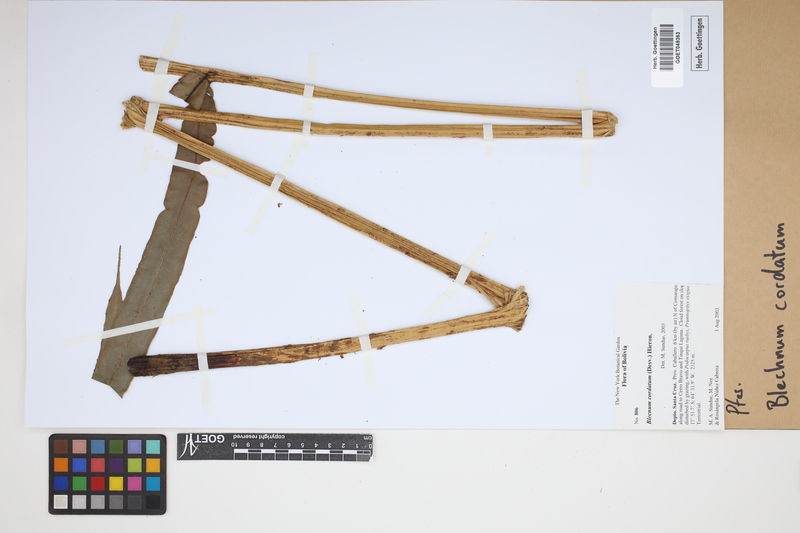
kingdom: Plantae
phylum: Tracheophyta
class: Polypodiopsida
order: Polypodiales
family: Blechnaceae
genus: Parablechnum
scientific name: Parablechnum cordatum
